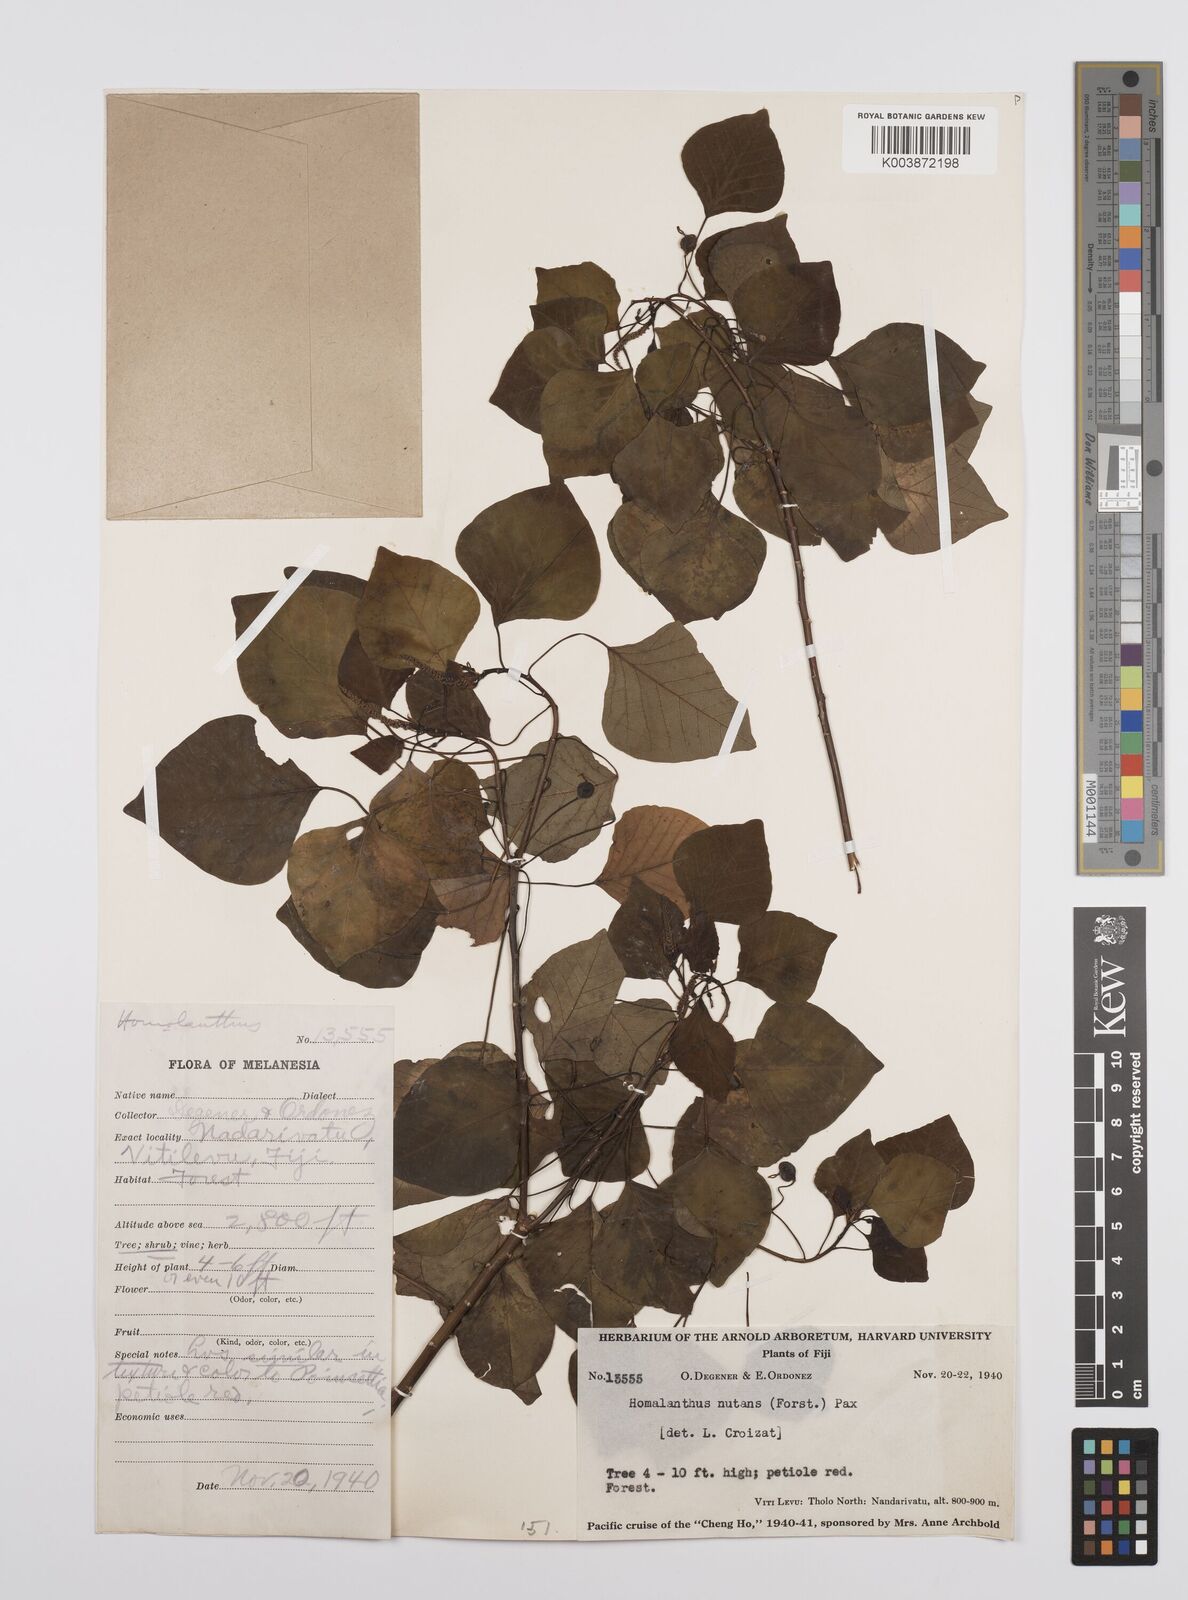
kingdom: Plantae
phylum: Tracheophyta
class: Magnoliopsida
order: Malpighiales
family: Euphorbiaceae
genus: Homalanthus
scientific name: Homalanthus nutans
